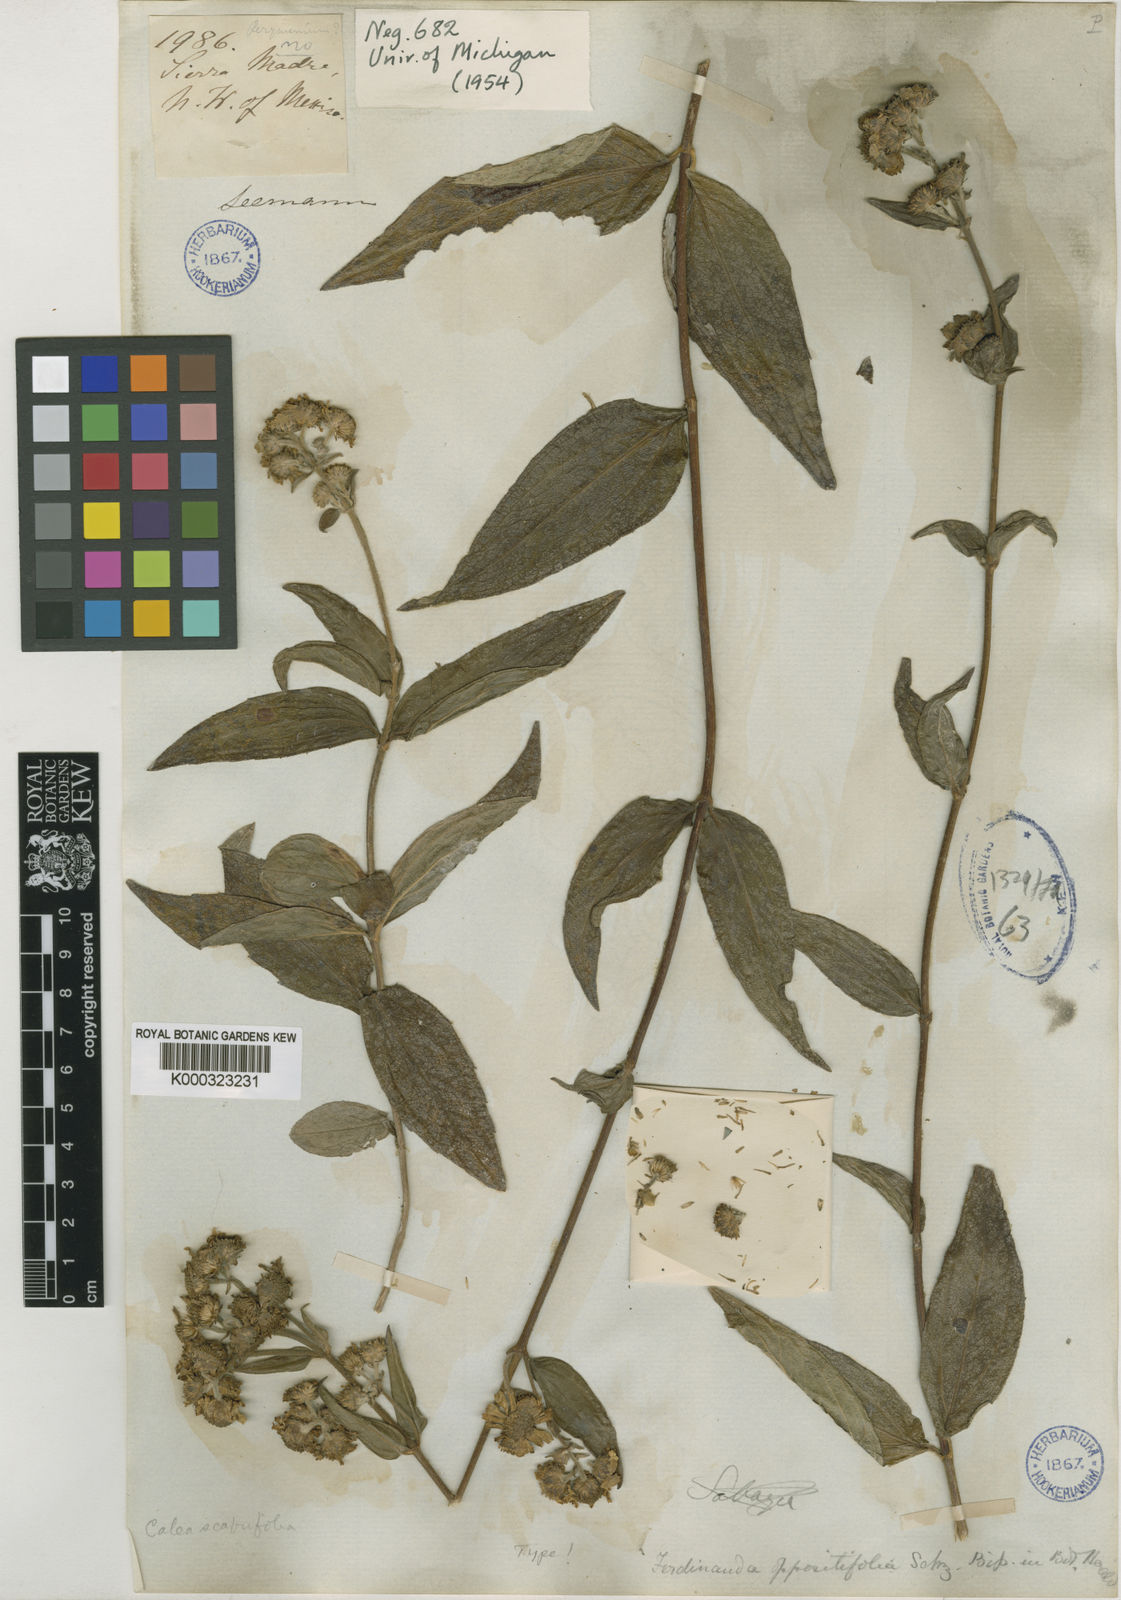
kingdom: Plantae
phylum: Tracheophyta
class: Magnoliopsida
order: Asterales
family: Asteraceae
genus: Calea
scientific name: Calea
